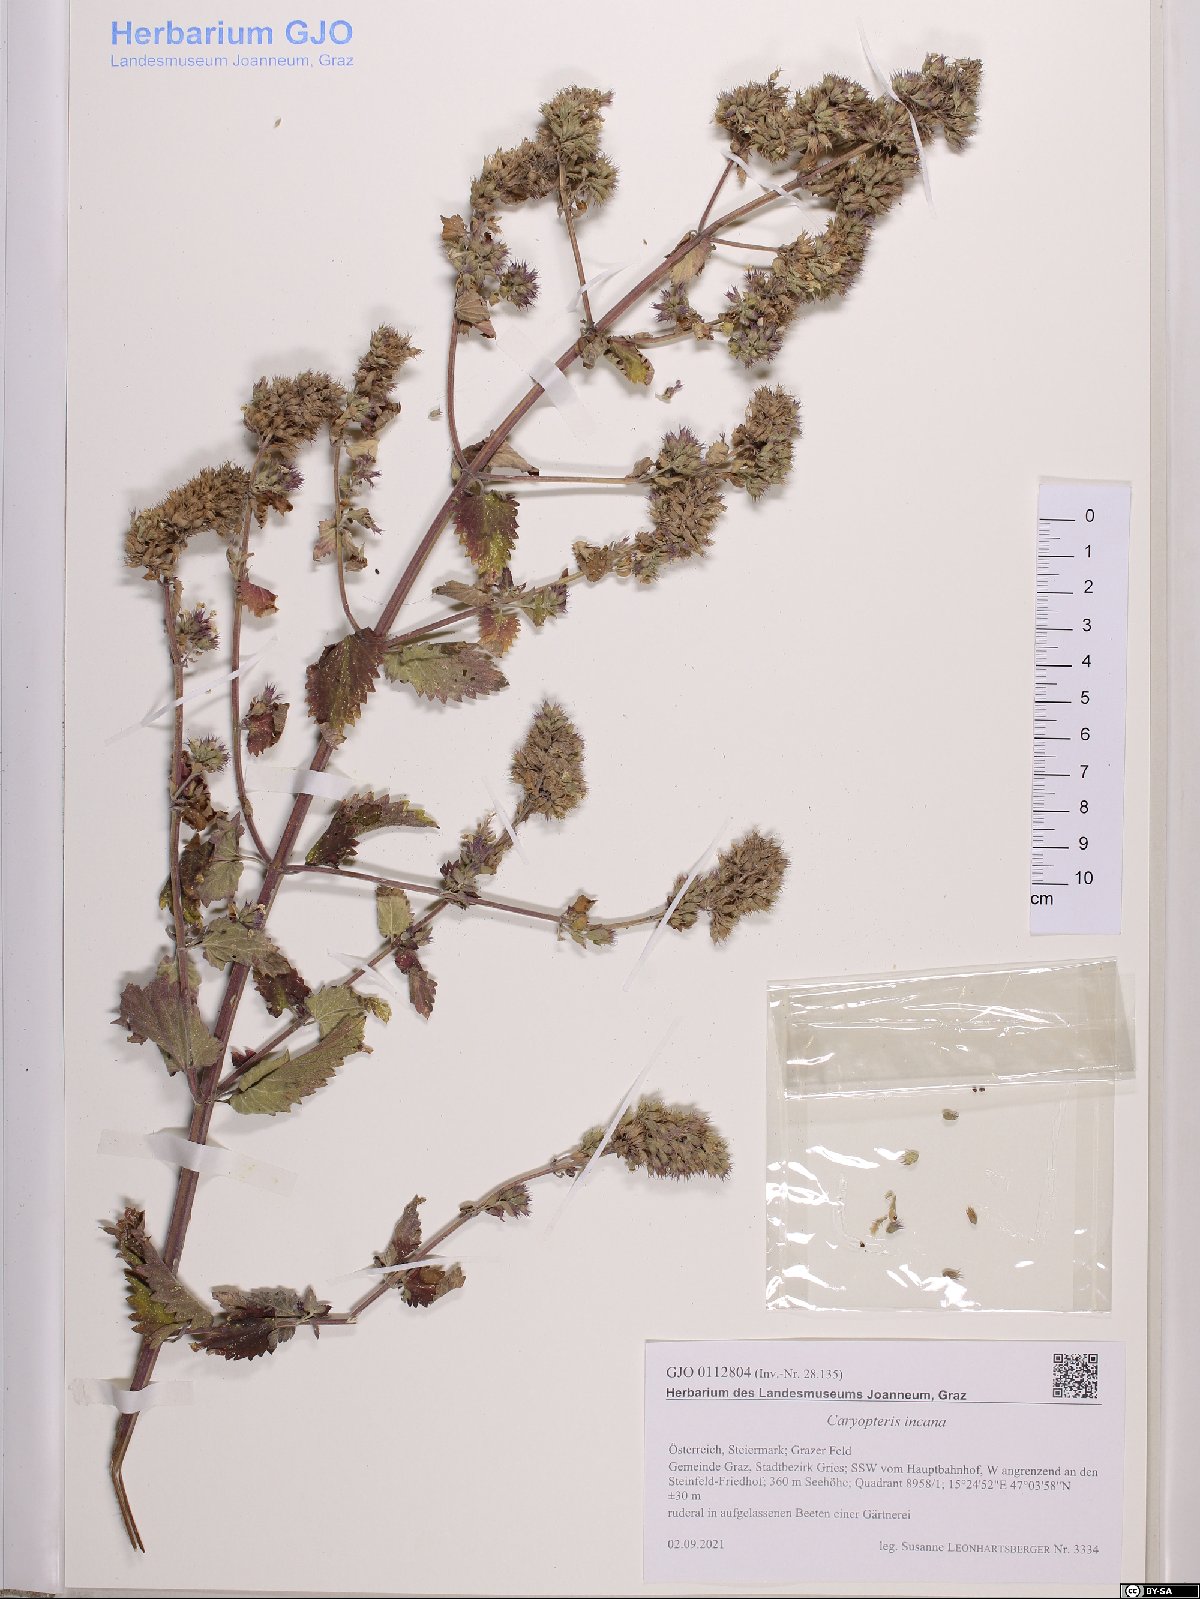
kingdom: Plantae
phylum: Tracheophyta
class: Magnoliopsida
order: Lamiales
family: Lamiaceae
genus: Caryopteris
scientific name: Caryopteris incana
